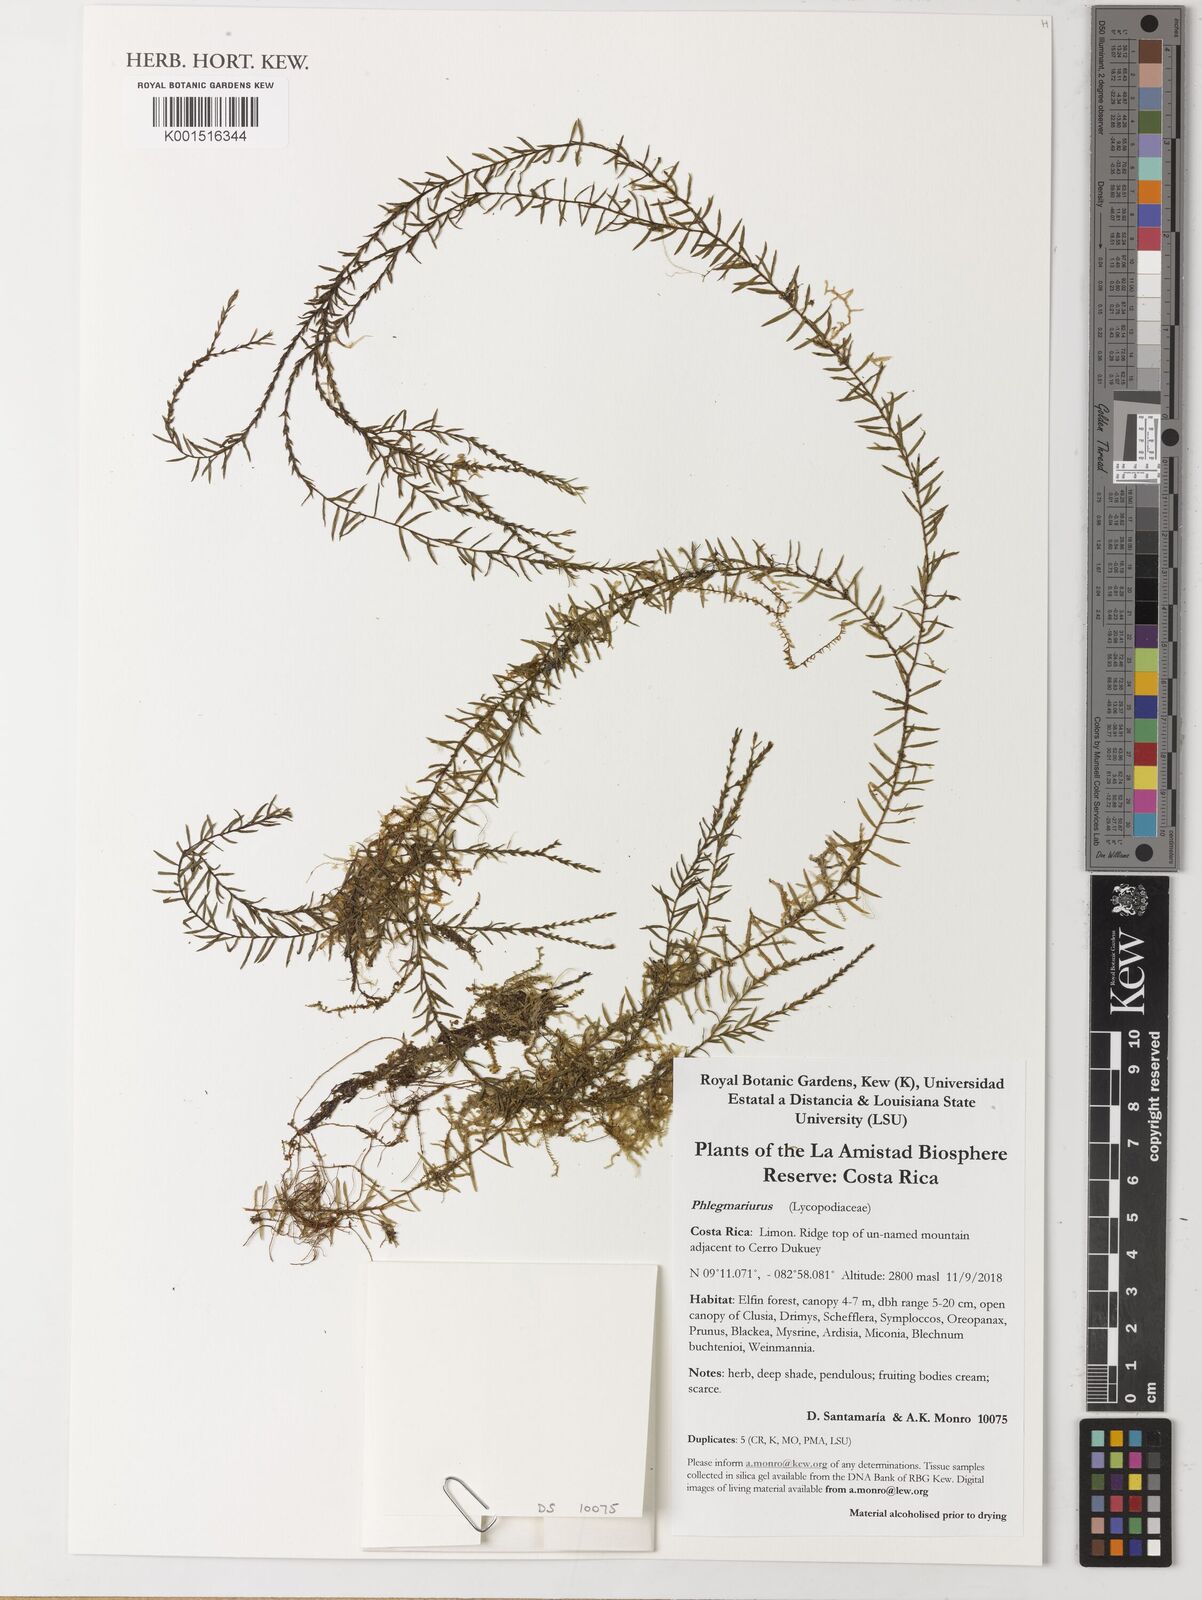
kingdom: Plantae
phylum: Tracheophyta
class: Lycopodiopsida
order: Lycopodiales
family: Lycopodiaceae
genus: Huperzia
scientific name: Huperzia
